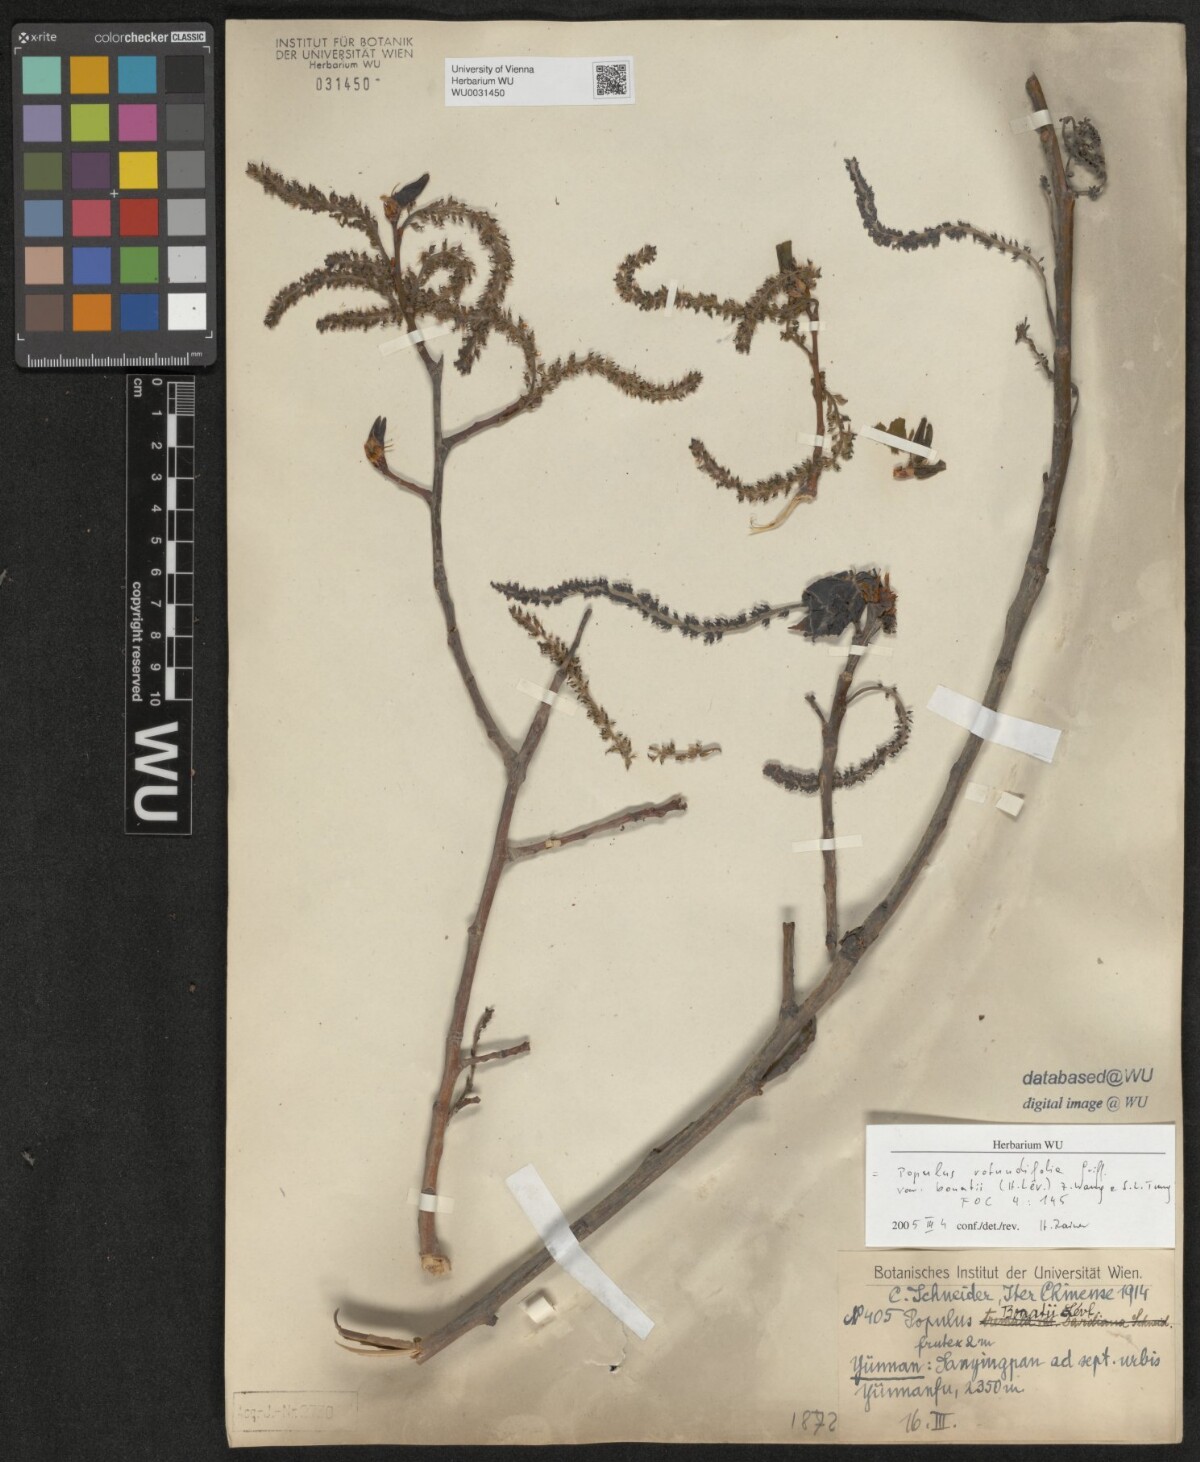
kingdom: Plantae
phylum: Tracheophyta
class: Magnoliopsida
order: Malpighiales
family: Salicaceae
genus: Populus
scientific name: Populus rotundifolia
